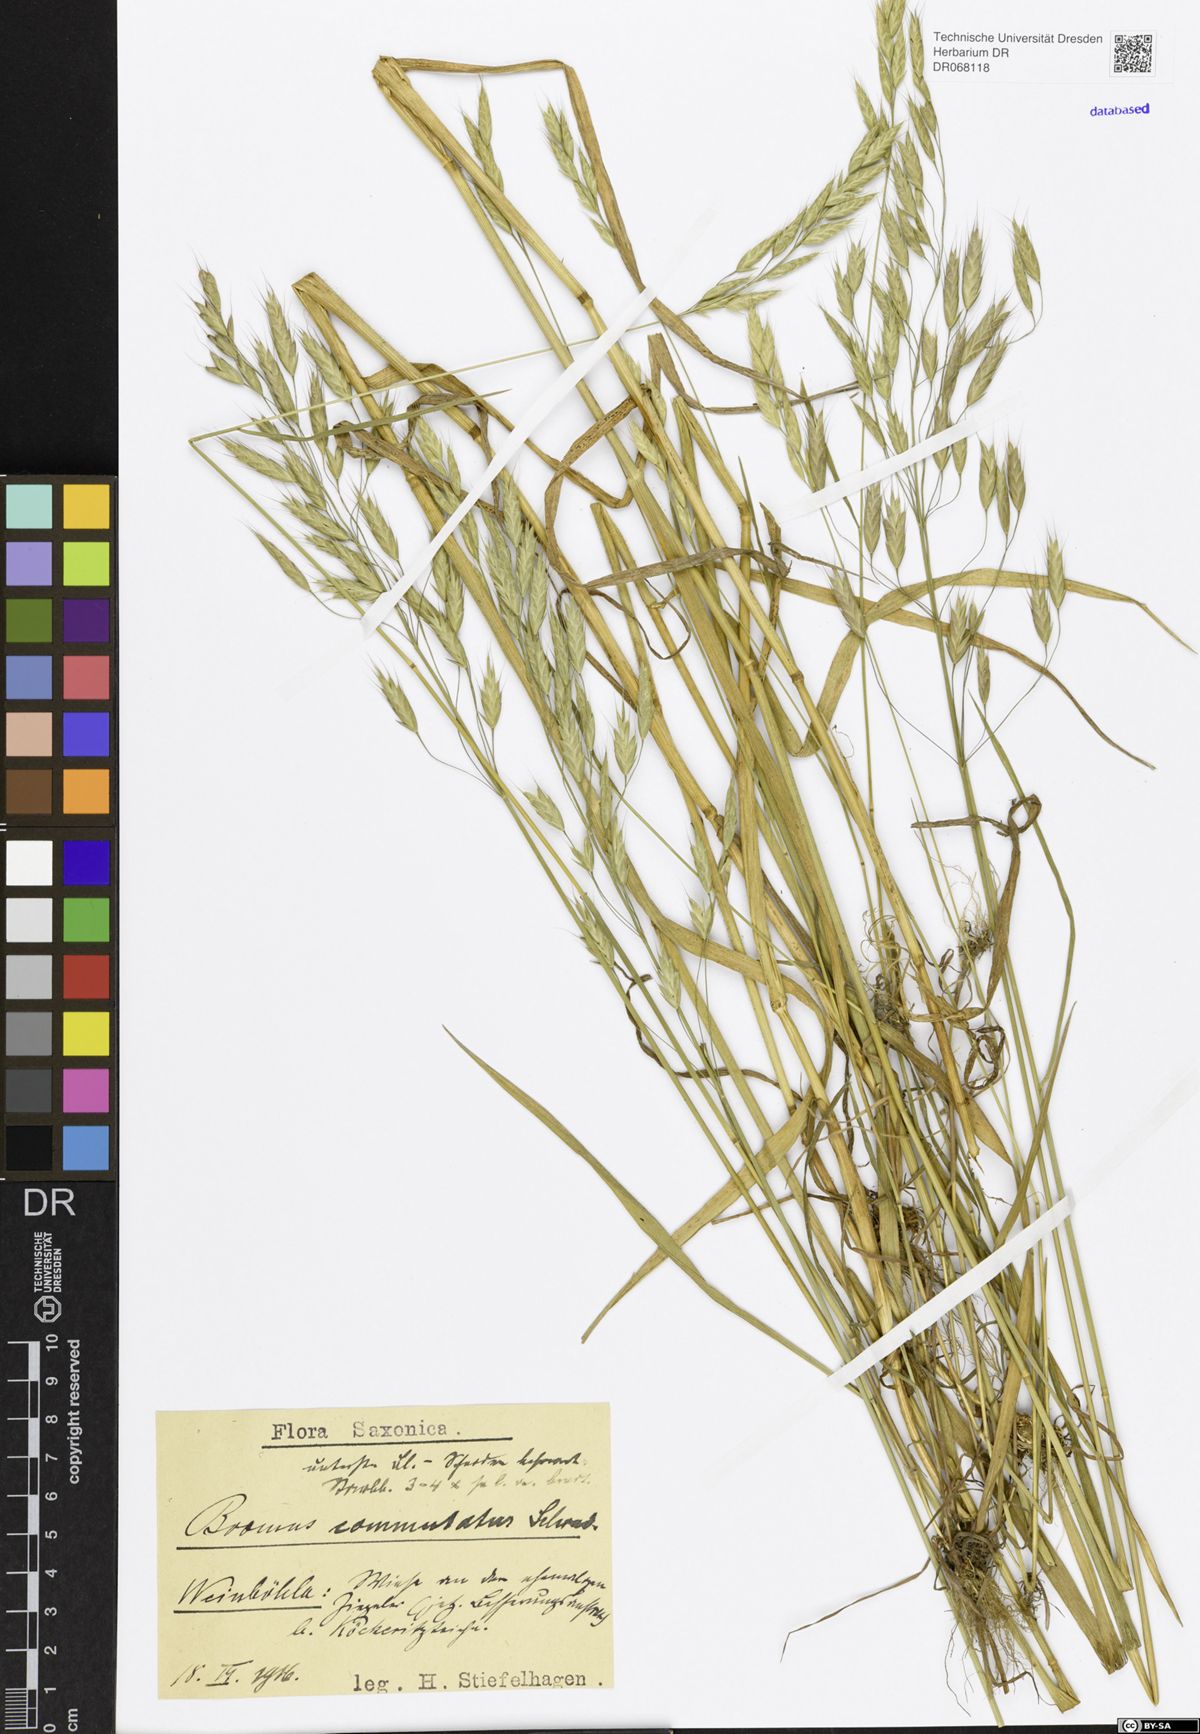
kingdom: Plantae
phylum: Tracheophyta
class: Liliopsida
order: Poales
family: Poaceae
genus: Bromus
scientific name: Bromus commutatus
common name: Meadow brome
